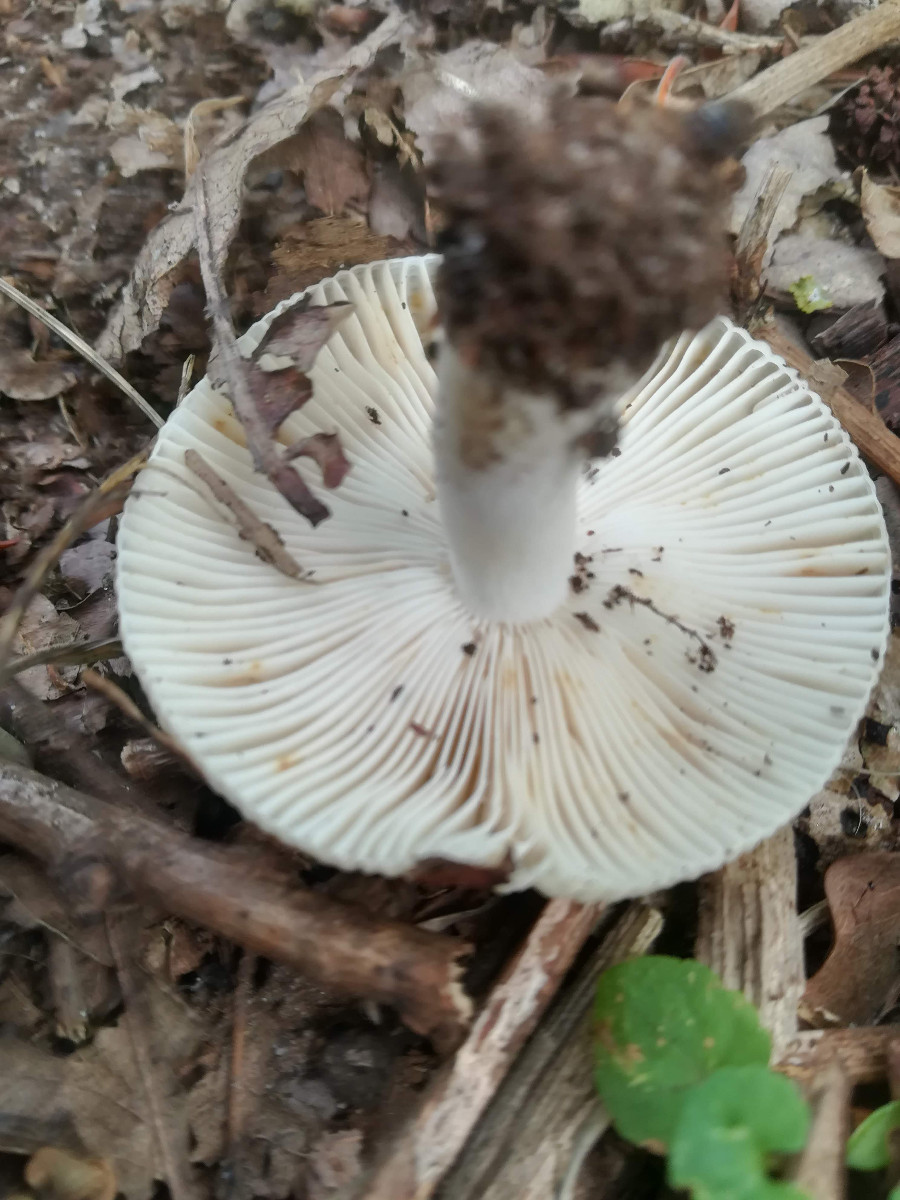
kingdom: Fungi
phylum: Basidiomycota
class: Agaricomycetes
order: Russulales
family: Russulaceae
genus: Russula
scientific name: Russula amoenolens
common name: skarp kam-skørhat
